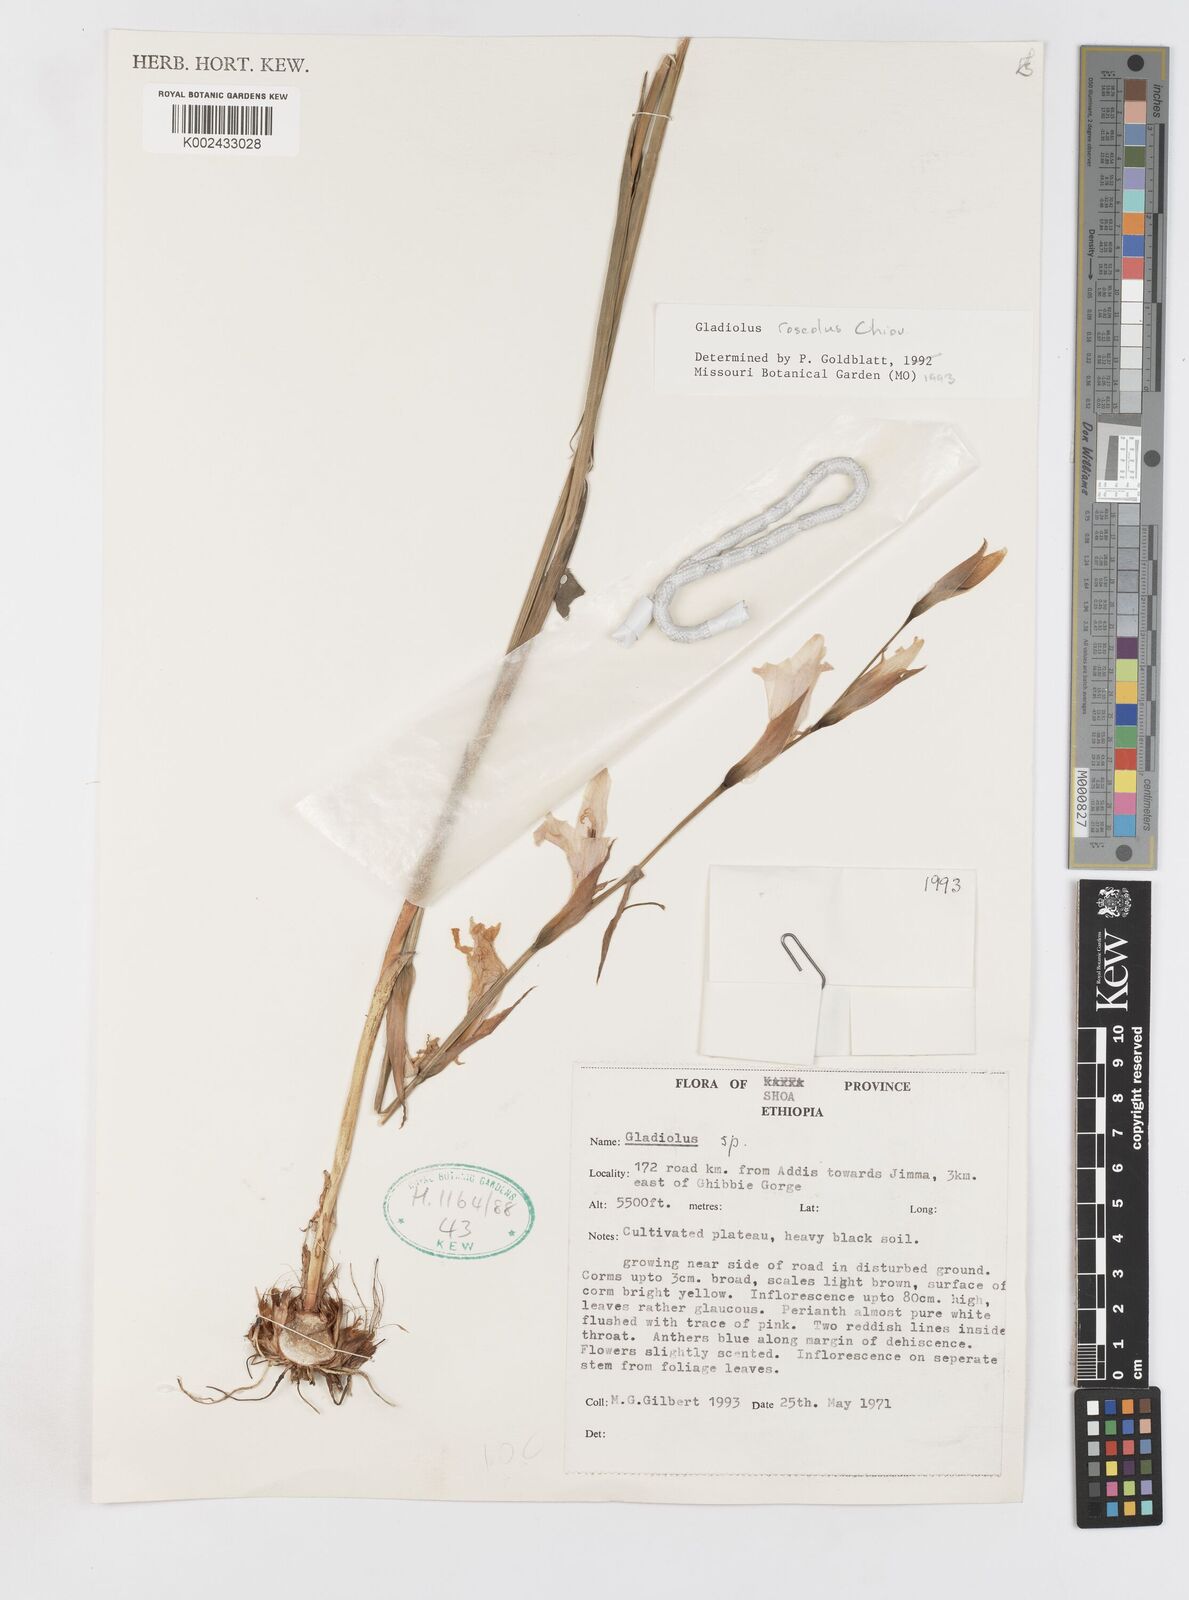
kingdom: Plantae
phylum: Tracheophyta
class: Liliopsida
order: Asparagales
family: Iridaceae
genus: Gladiolus
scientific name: Gladiolus roseolus
